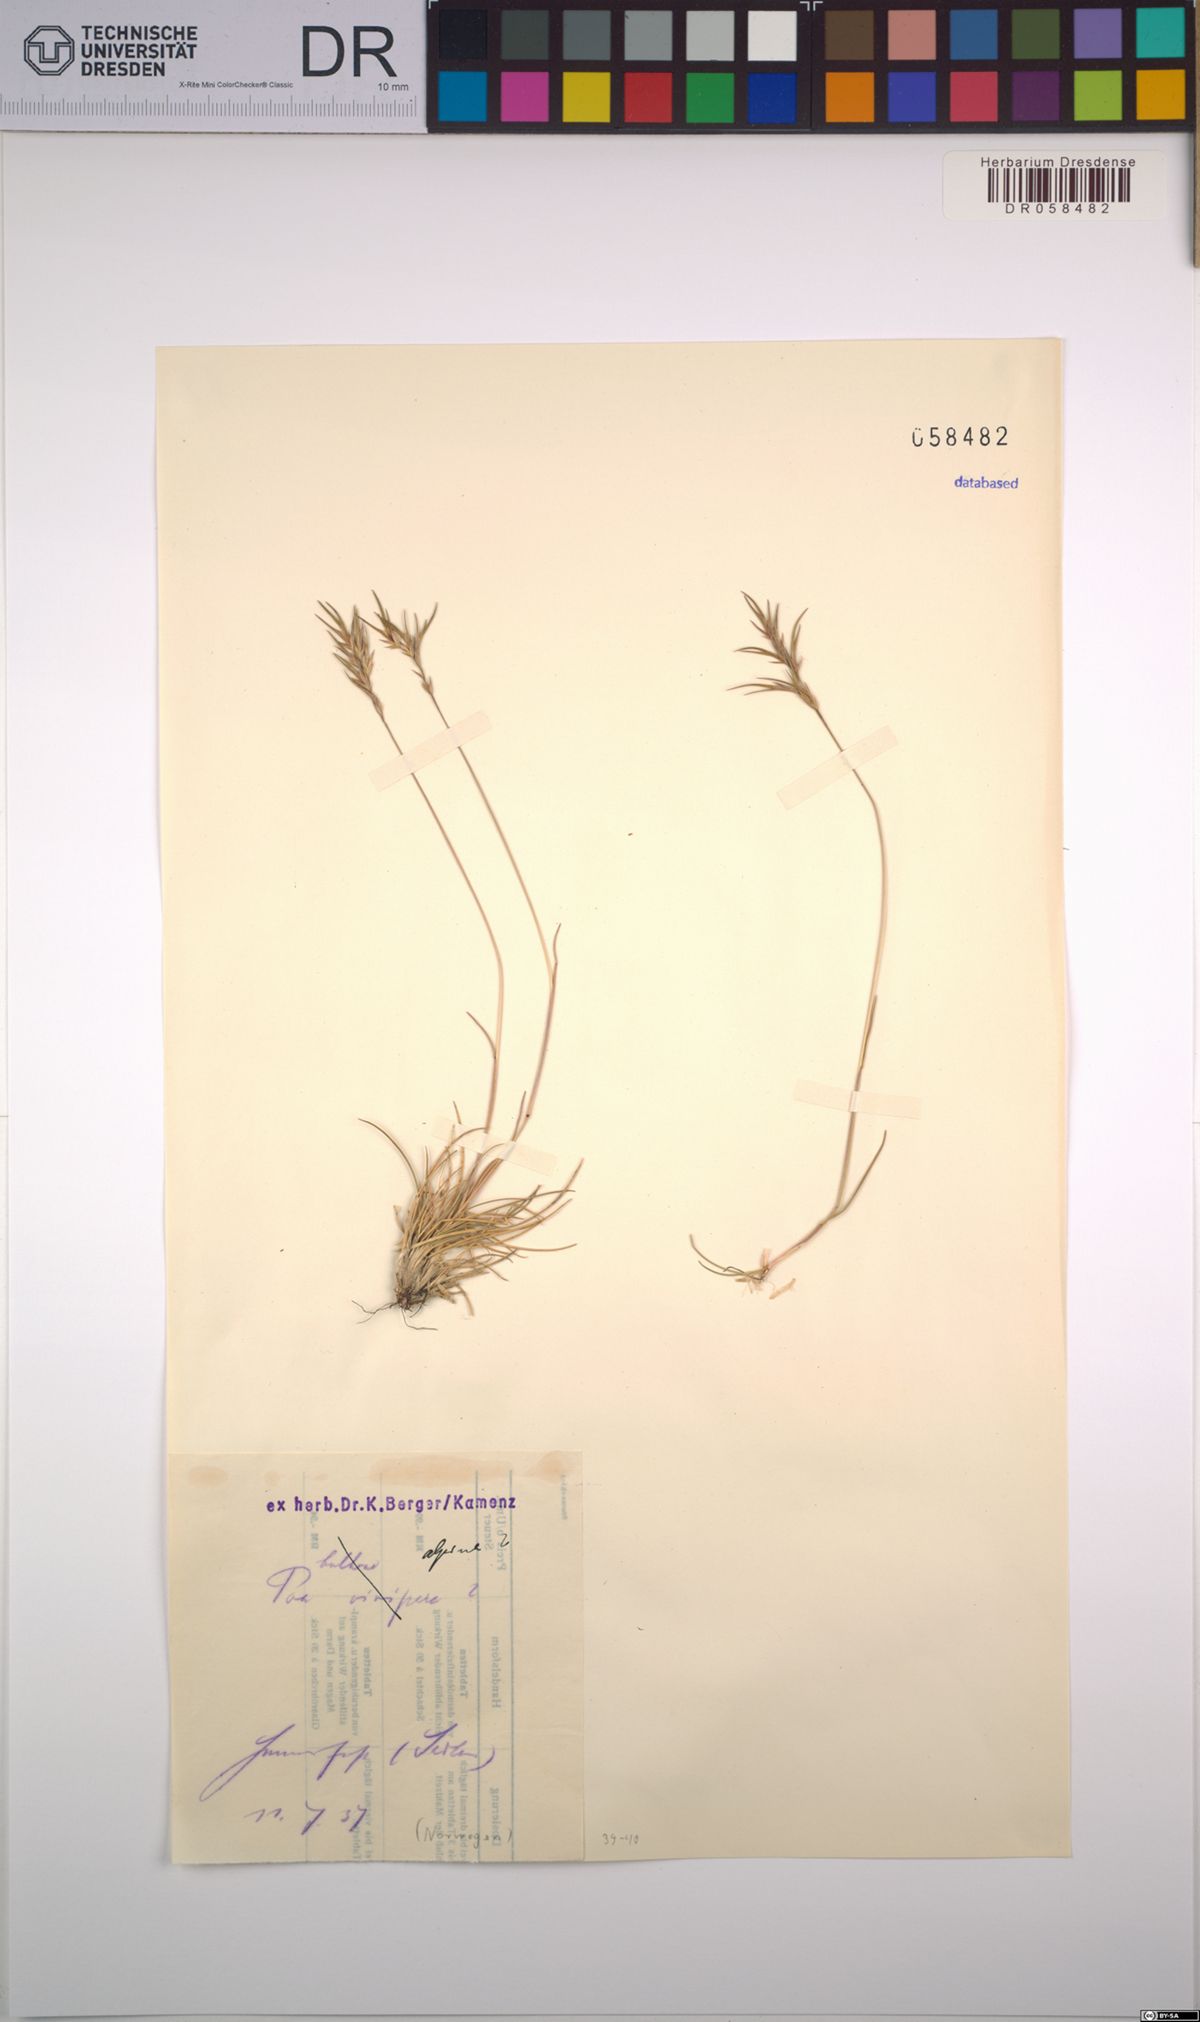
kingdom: Plantae
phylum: Tracheophyta
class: Liliopsida
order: Poales
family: Poaceae
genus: Poa
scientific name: Poa alpina
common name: Alpine bluegrass
